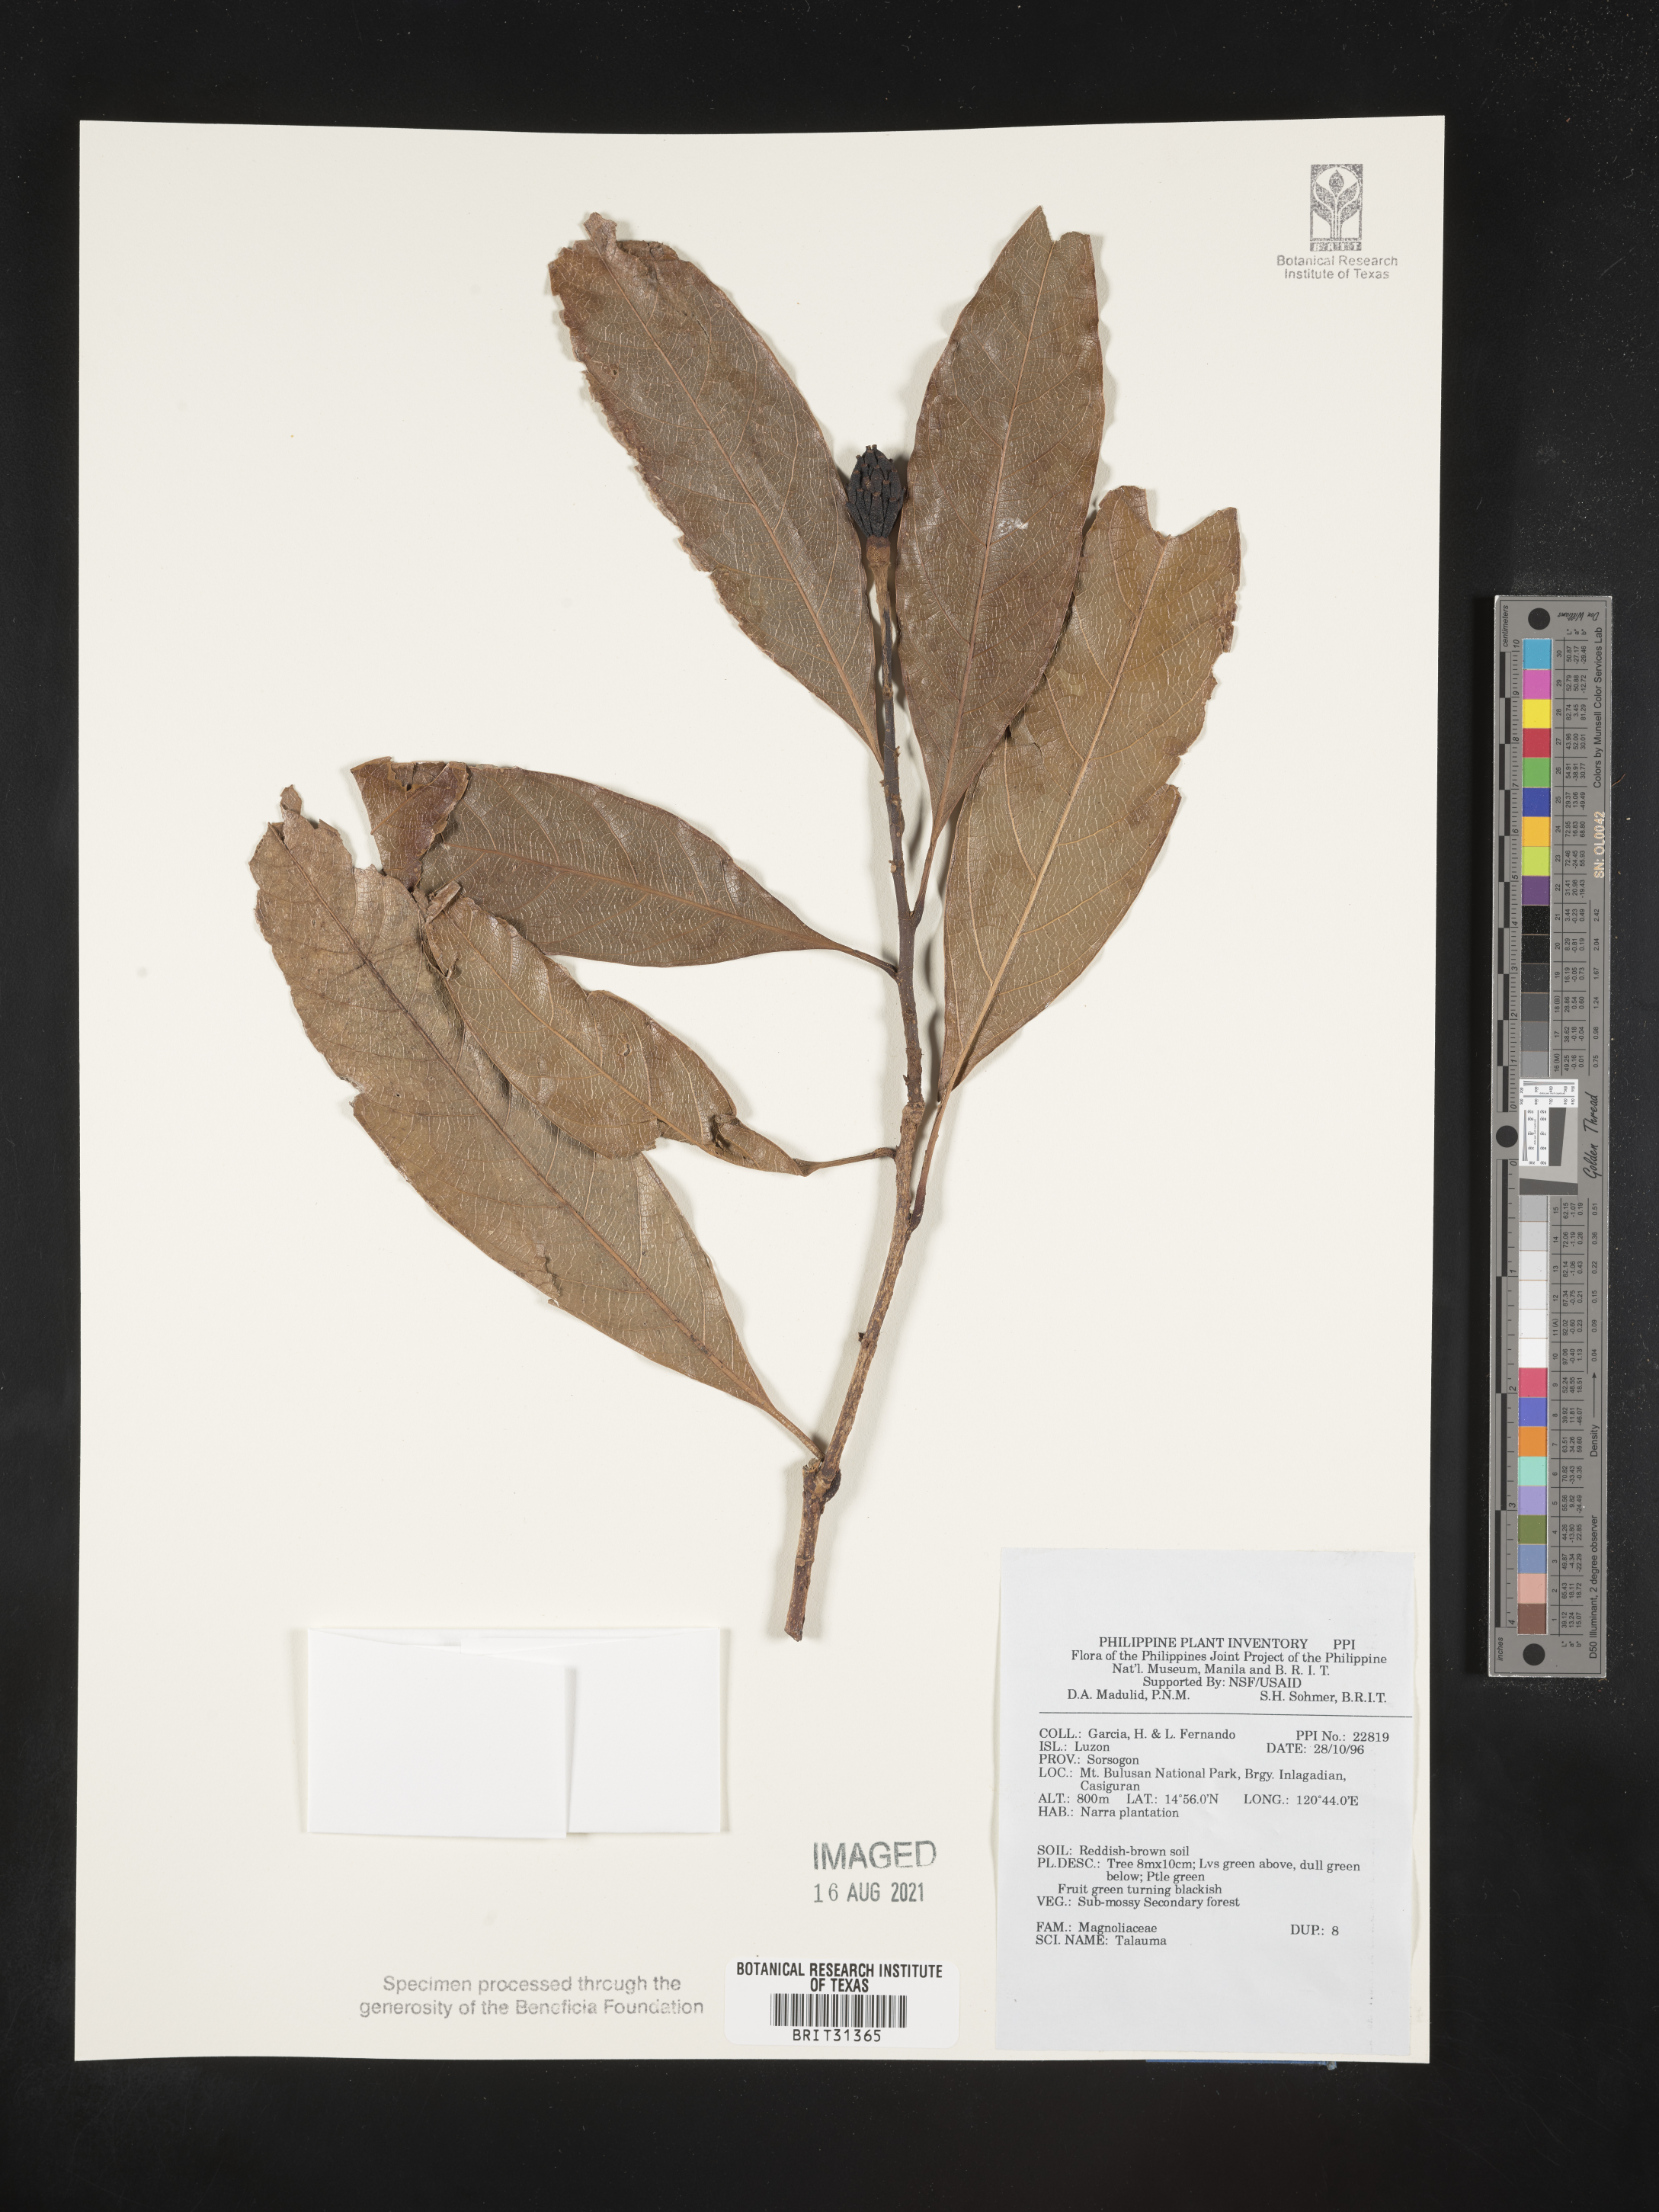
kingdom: Plantae
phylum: Tracheophyta
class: Magnoliopsida
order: Magnoliales
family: Magnoliaceae
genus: Magnolia
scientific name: Magnolia Talauma spec
